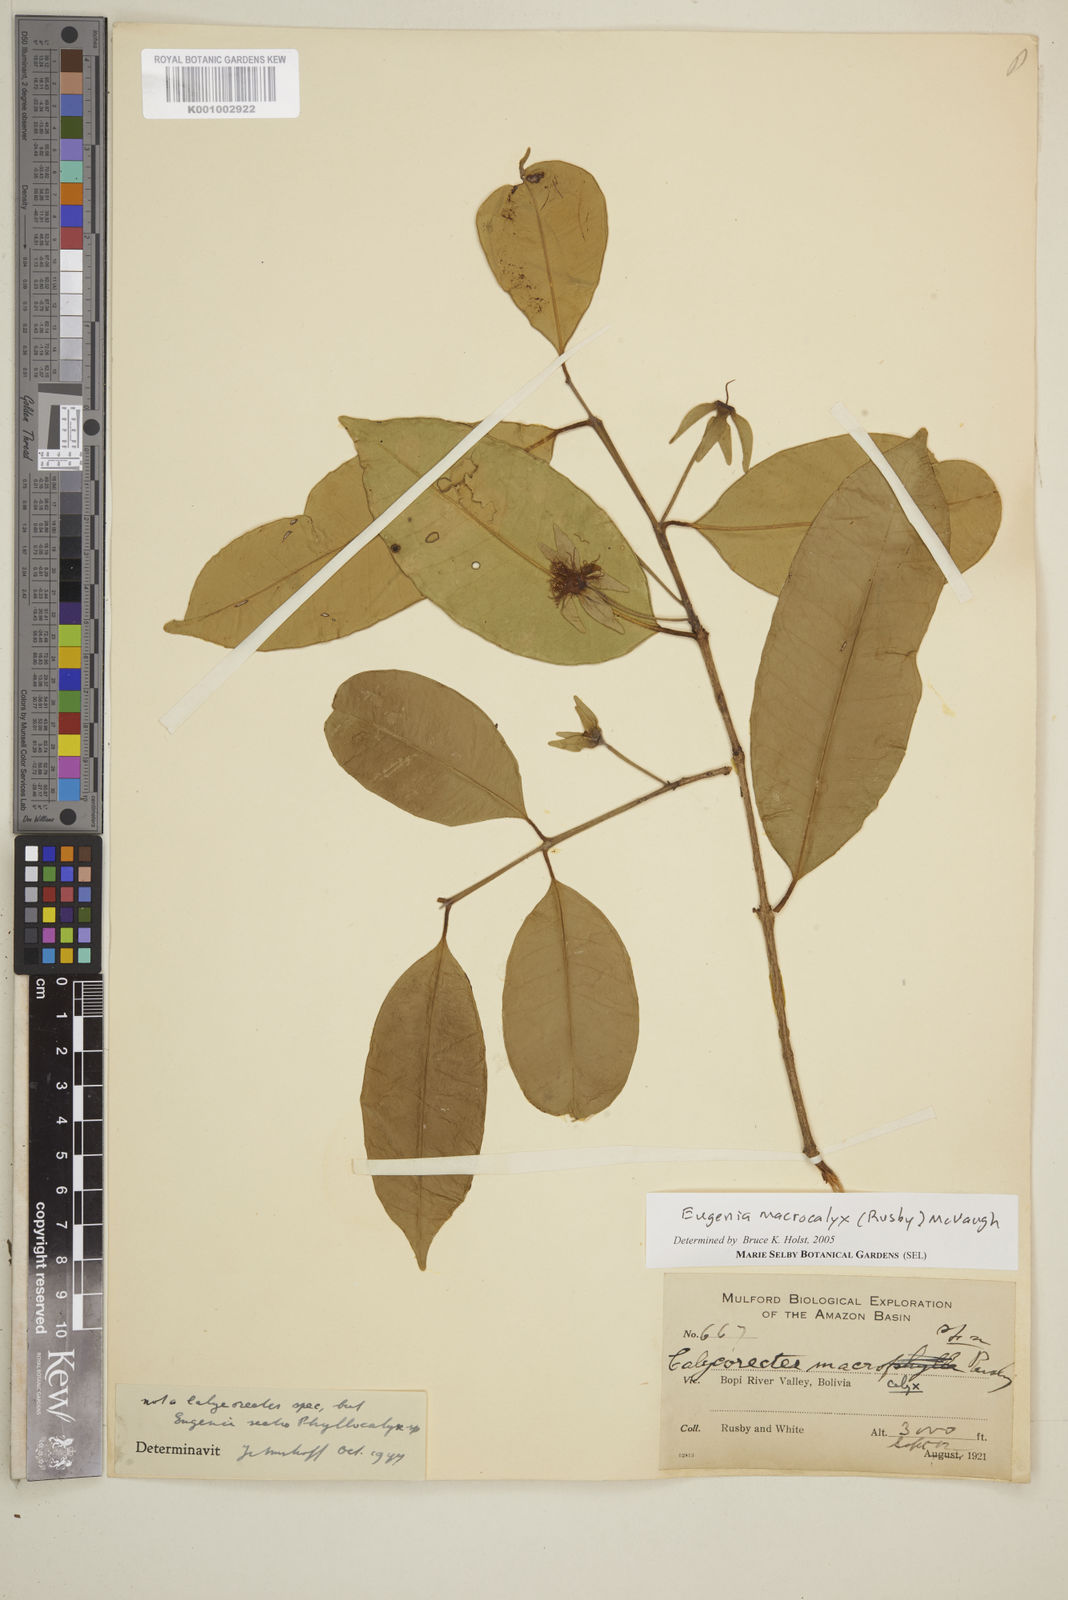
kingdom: Plantae
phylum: Tracheophyta
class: Magnoliopsida
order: Myrtales
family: Myrtaceae
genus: Eugenia
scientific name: Eugenia
